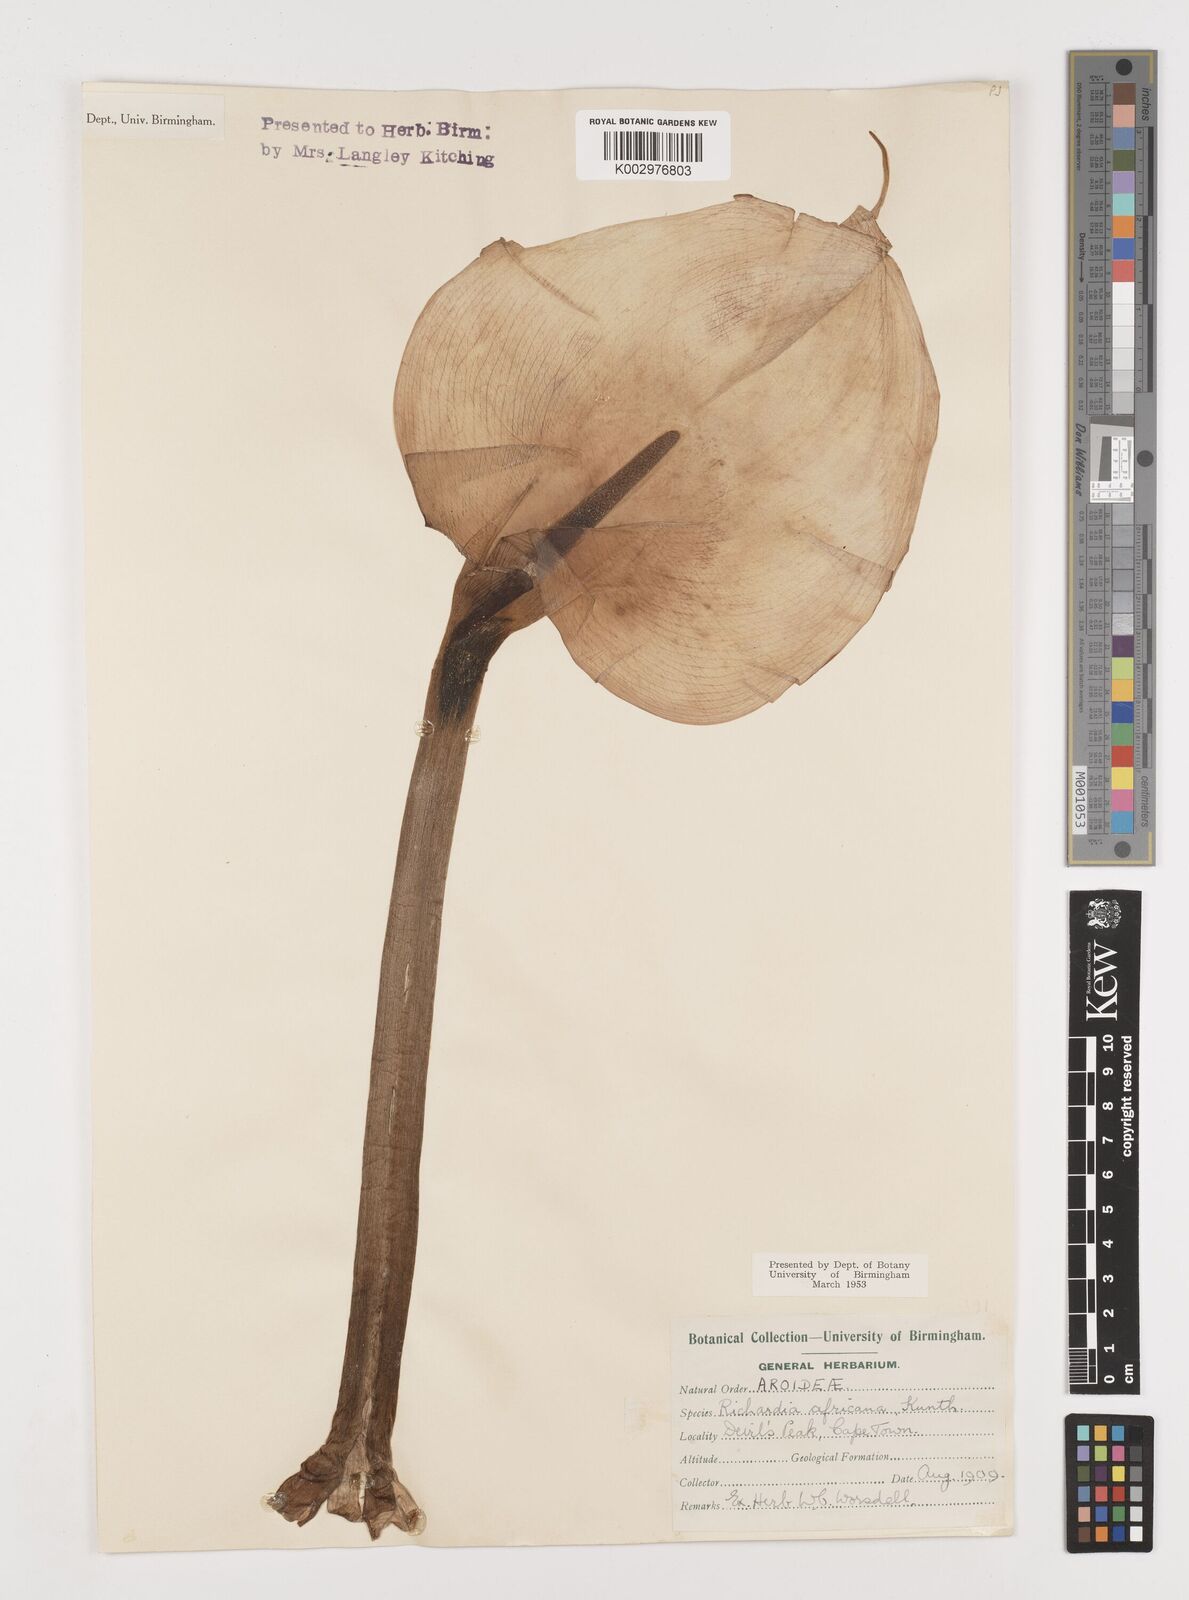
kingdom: Plantae
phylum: Tracheophyta
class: Liliopsida
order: Alismatales
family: Araceae
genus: Zantedeschia
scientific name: Zantedeschia aethiopica
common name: Altar-lily
